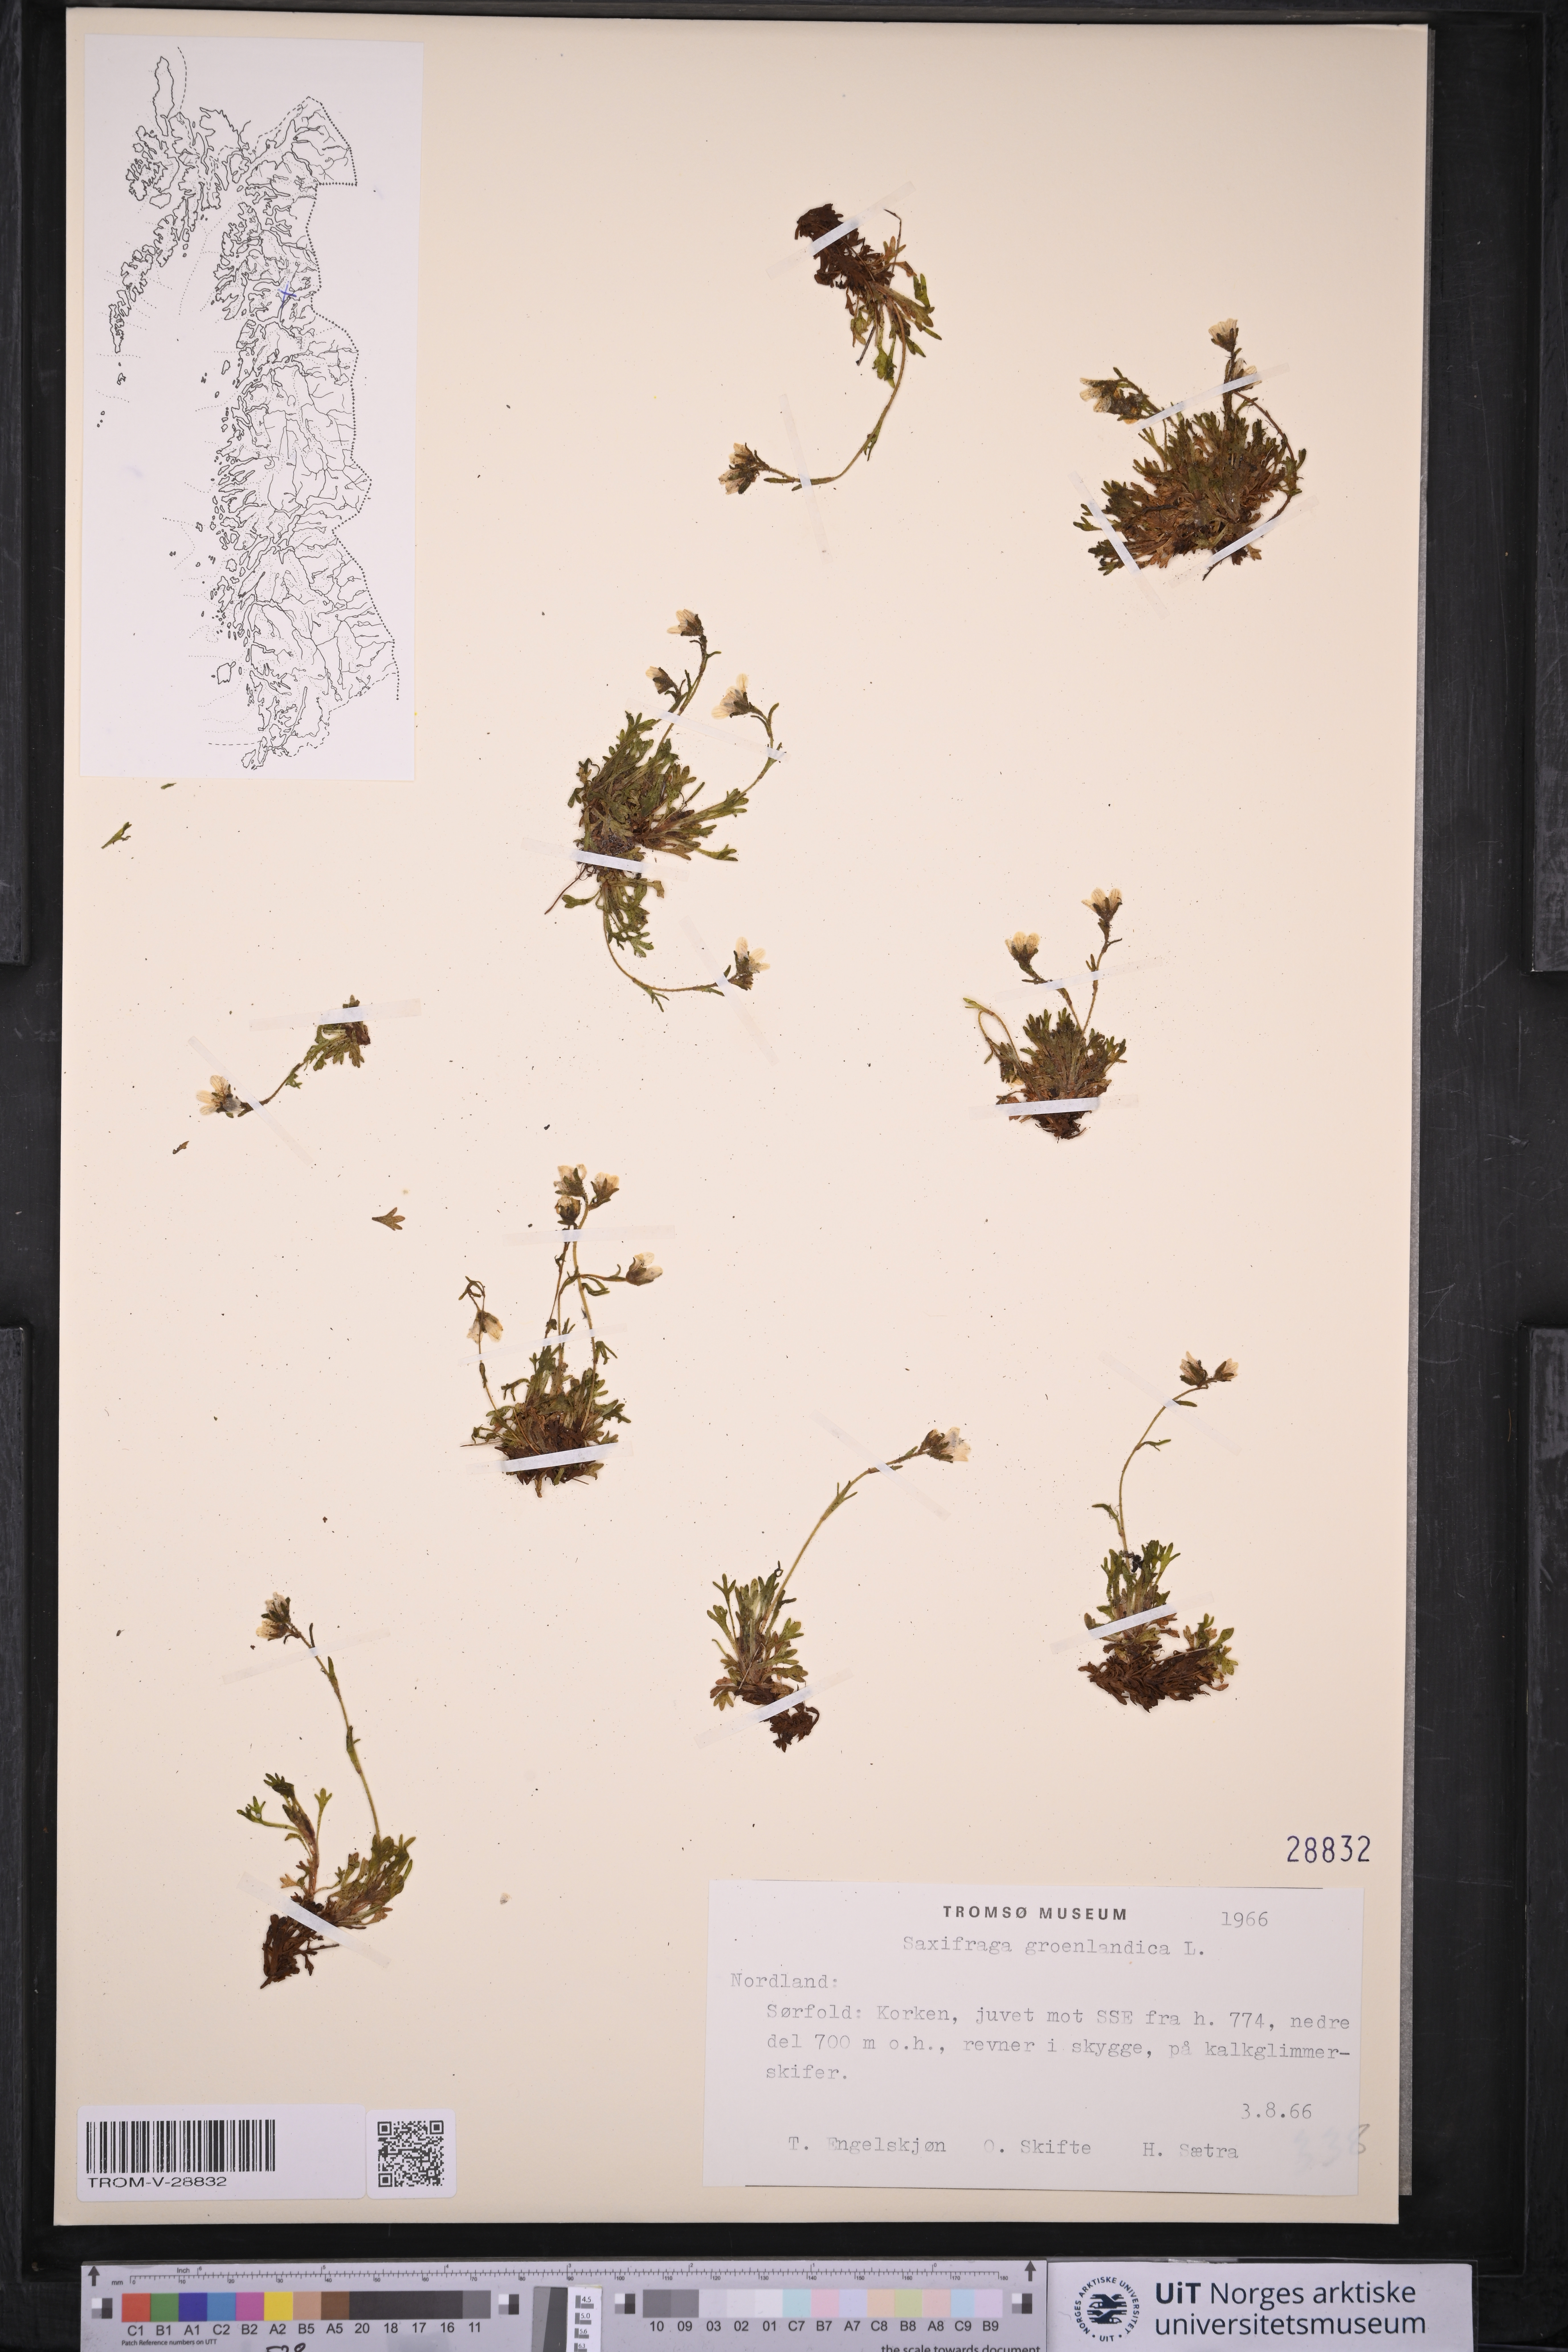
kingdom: Plantae
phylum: Tracheophyta
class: Magnoliopsida
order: Saxifragales
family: Saxifragaceae
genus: Saxifraga
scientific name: Saxifraga cespitosa
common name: Tufted saxifrage
